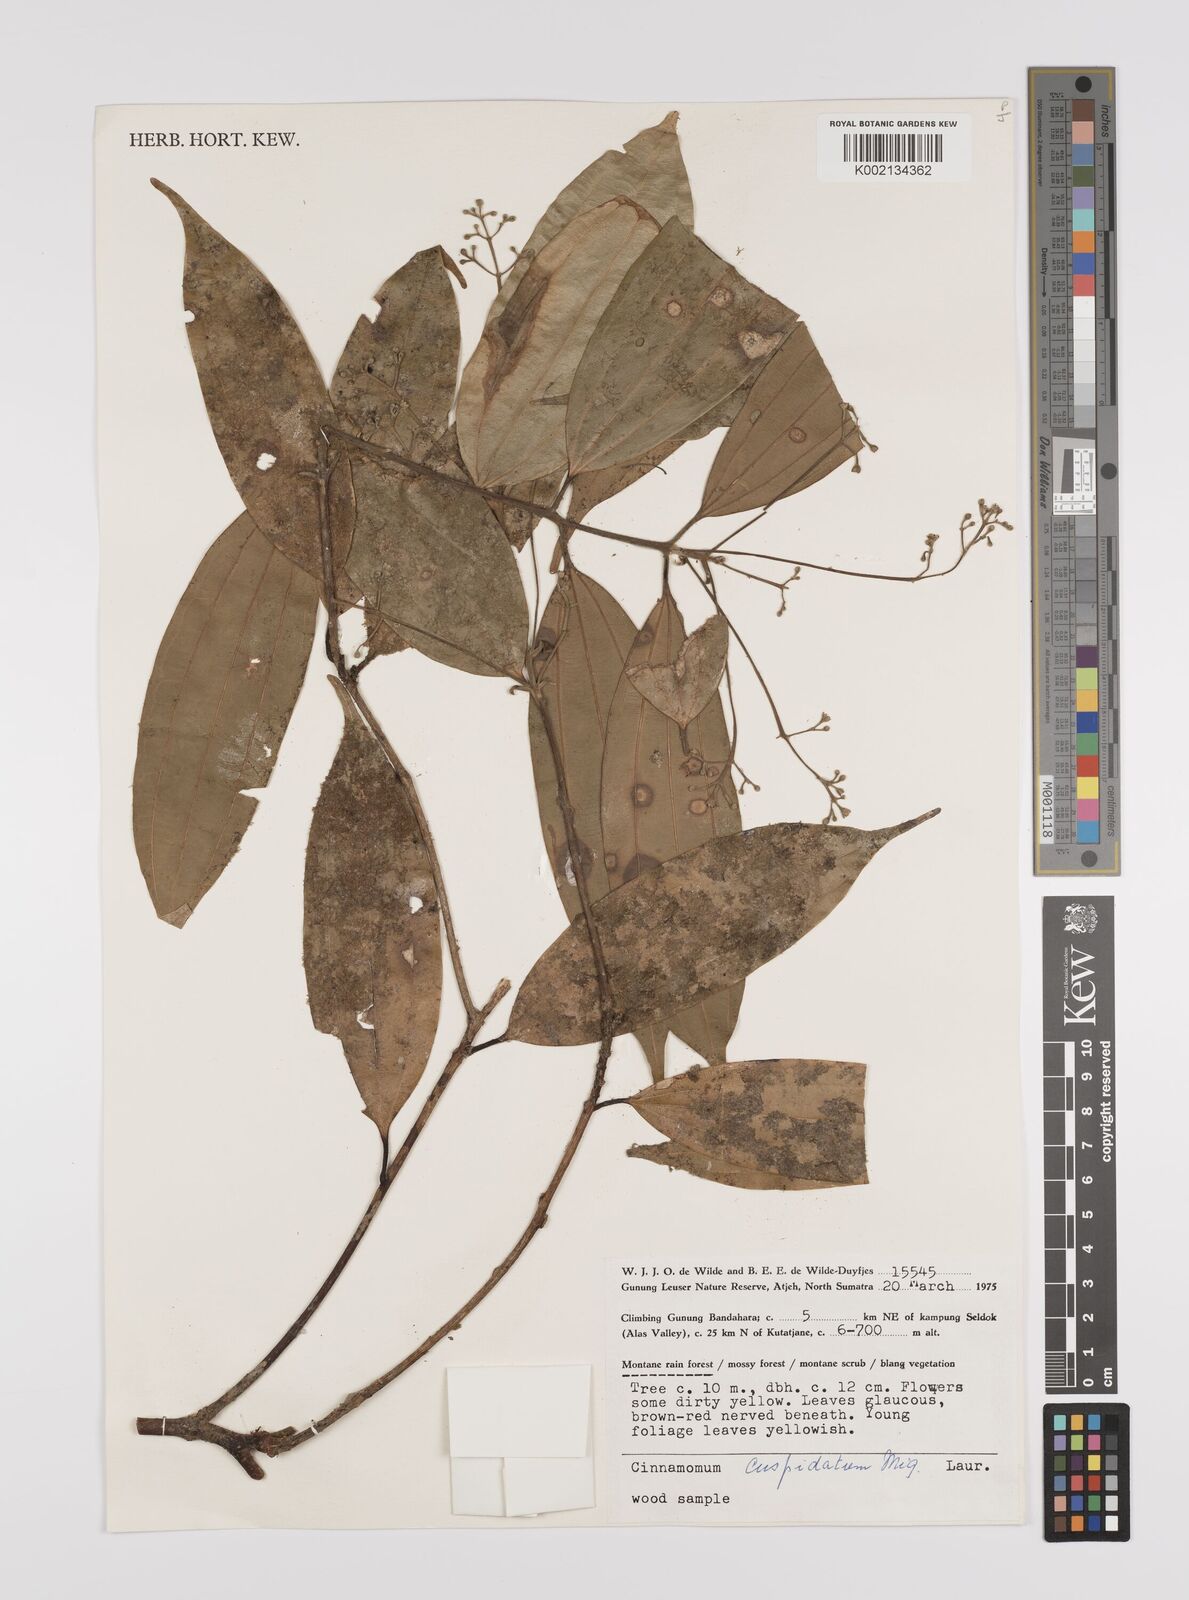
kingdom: Plantae
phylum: Tracheophyta
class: Magnoliopsida
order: Laurales
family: Lauraceae
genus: Cinnamomum
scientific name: Cinnamomum cuspidatum
